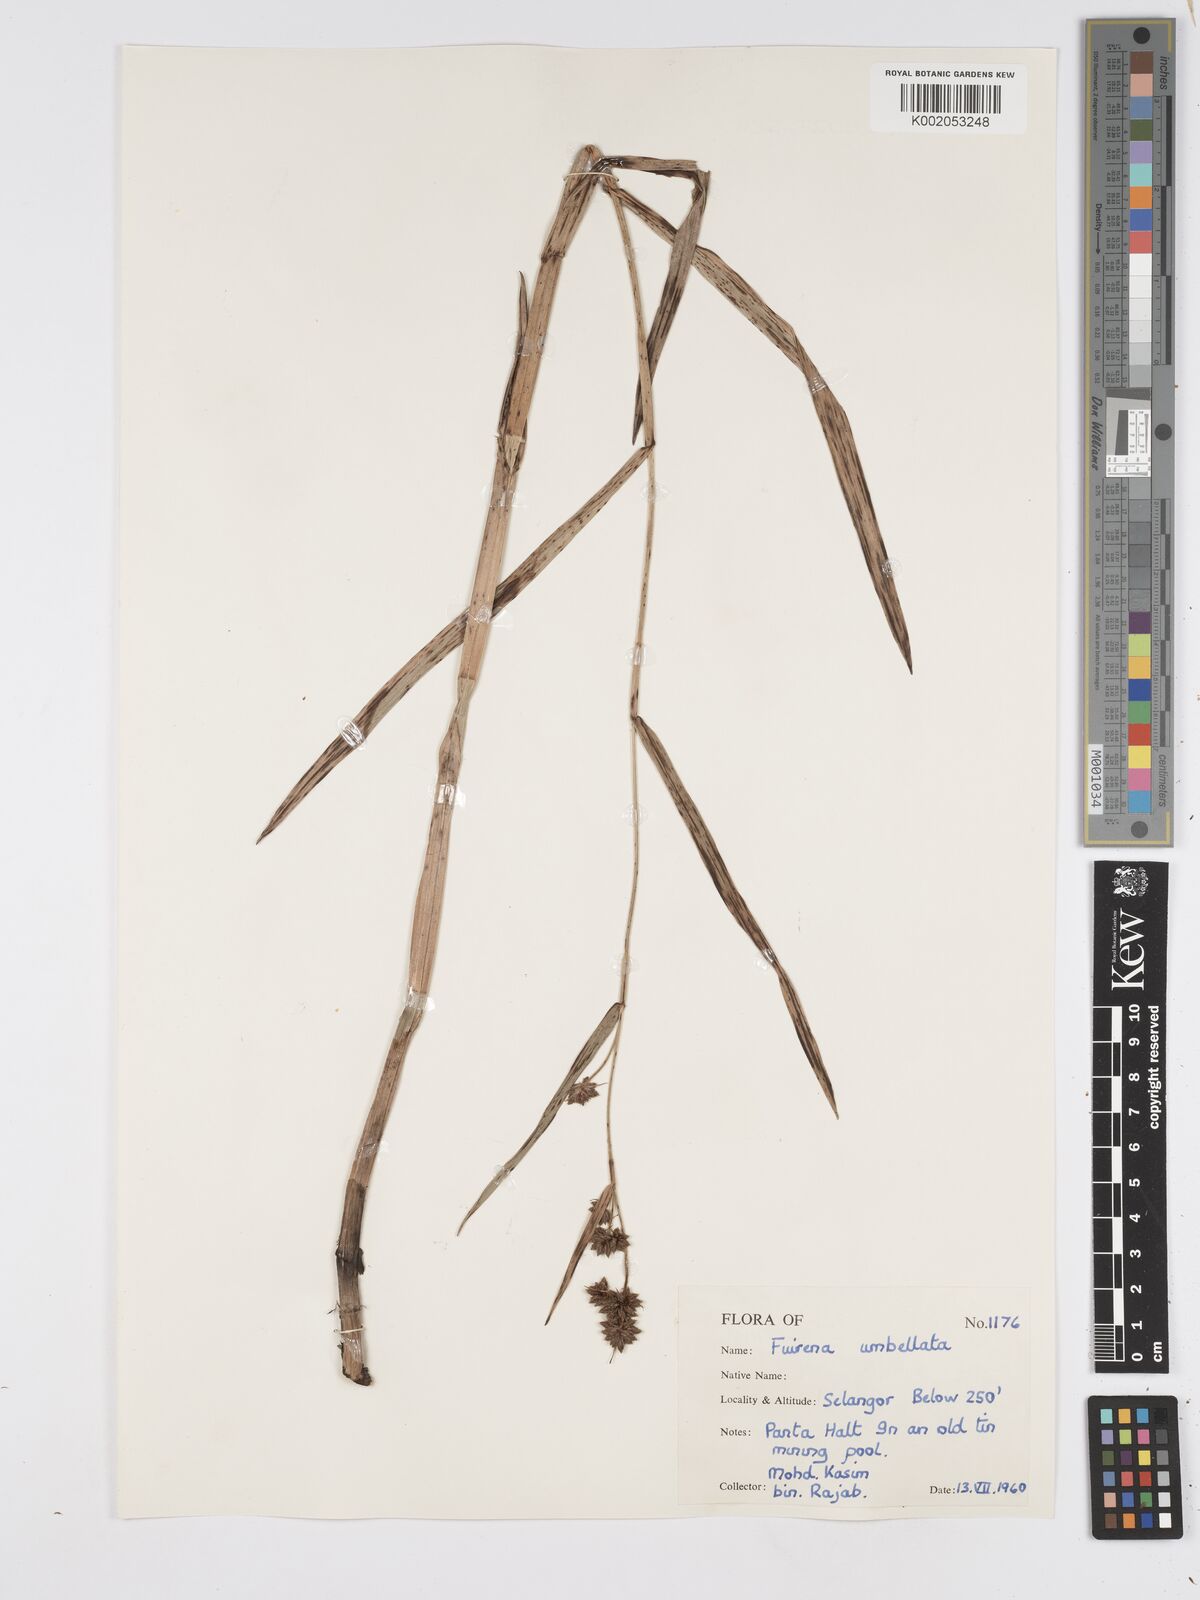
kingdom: Plantae
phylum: Tracheophyta
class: Liliopsida
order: Poales
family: Cyperaceae
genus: Fuirena
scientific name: Fuirena umbellata
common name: Yefen
